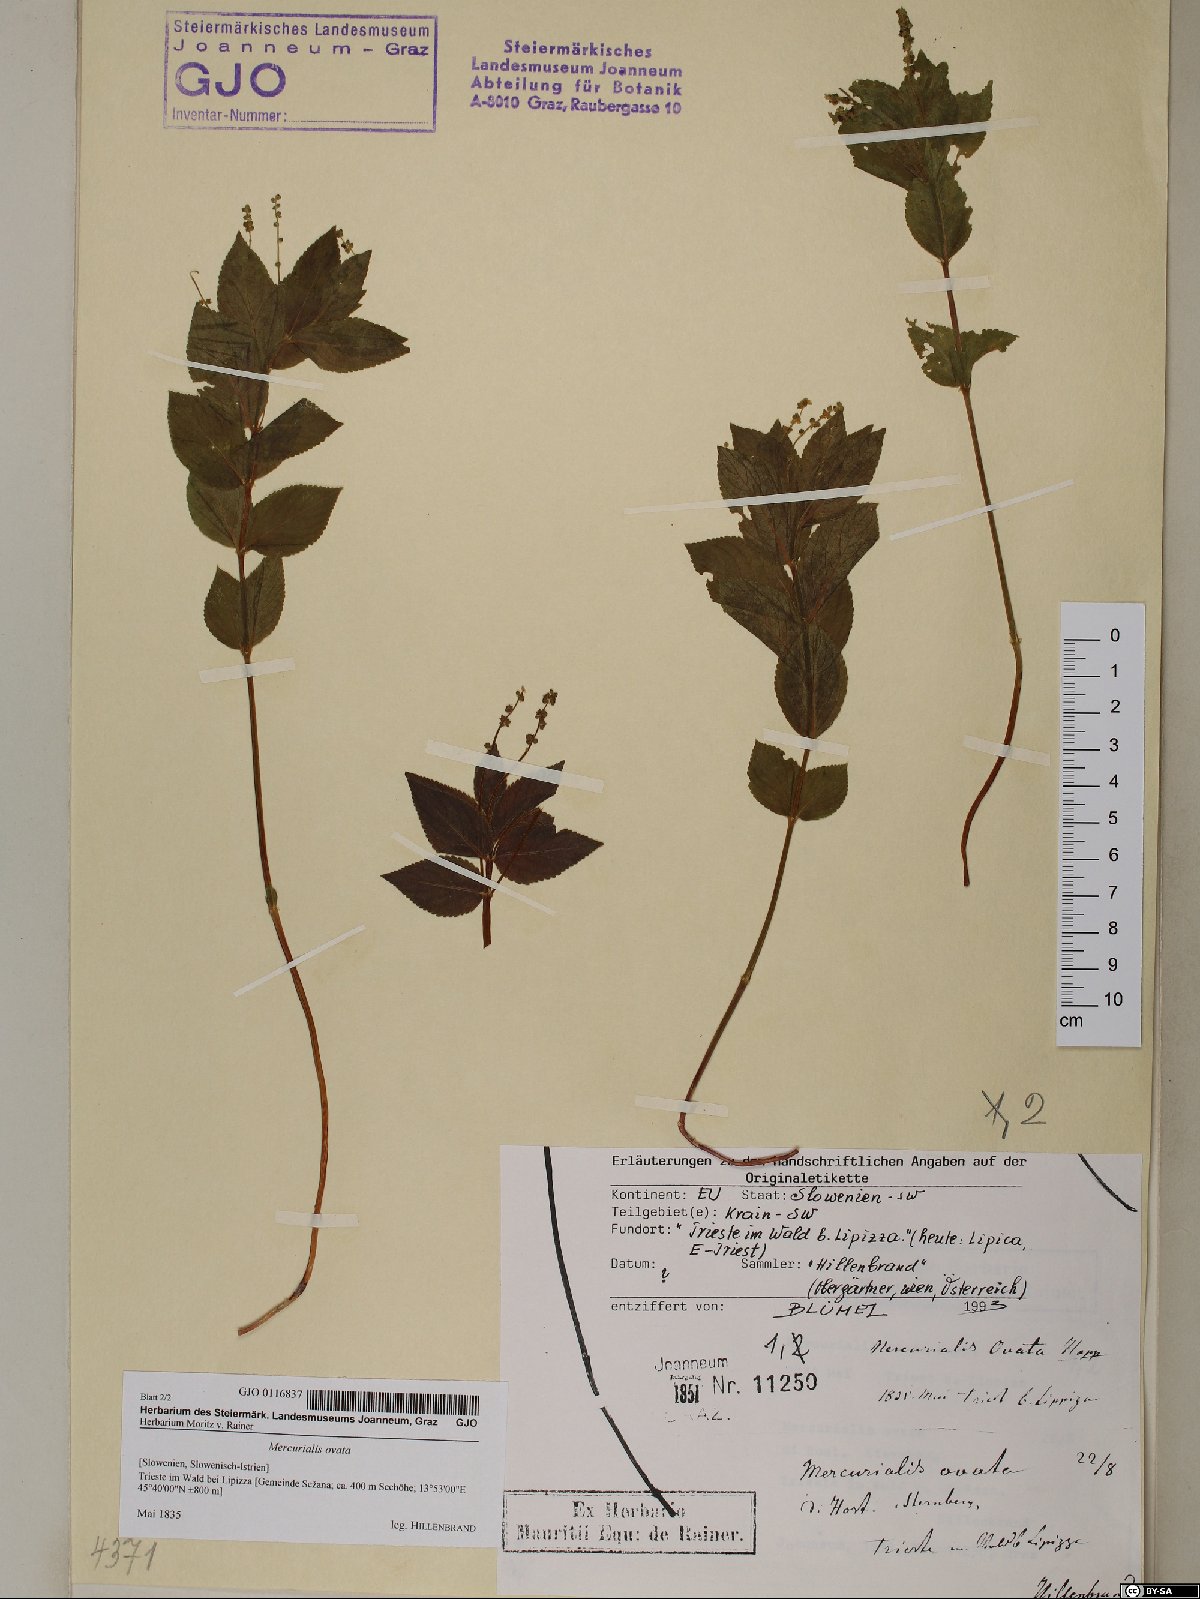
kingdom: Plantae
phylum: Tracheophyta
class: Magnoliopsida
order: Malpighiales
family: Euphorbiaceae
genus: Mercurialis
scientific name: Mercurialis ovata
